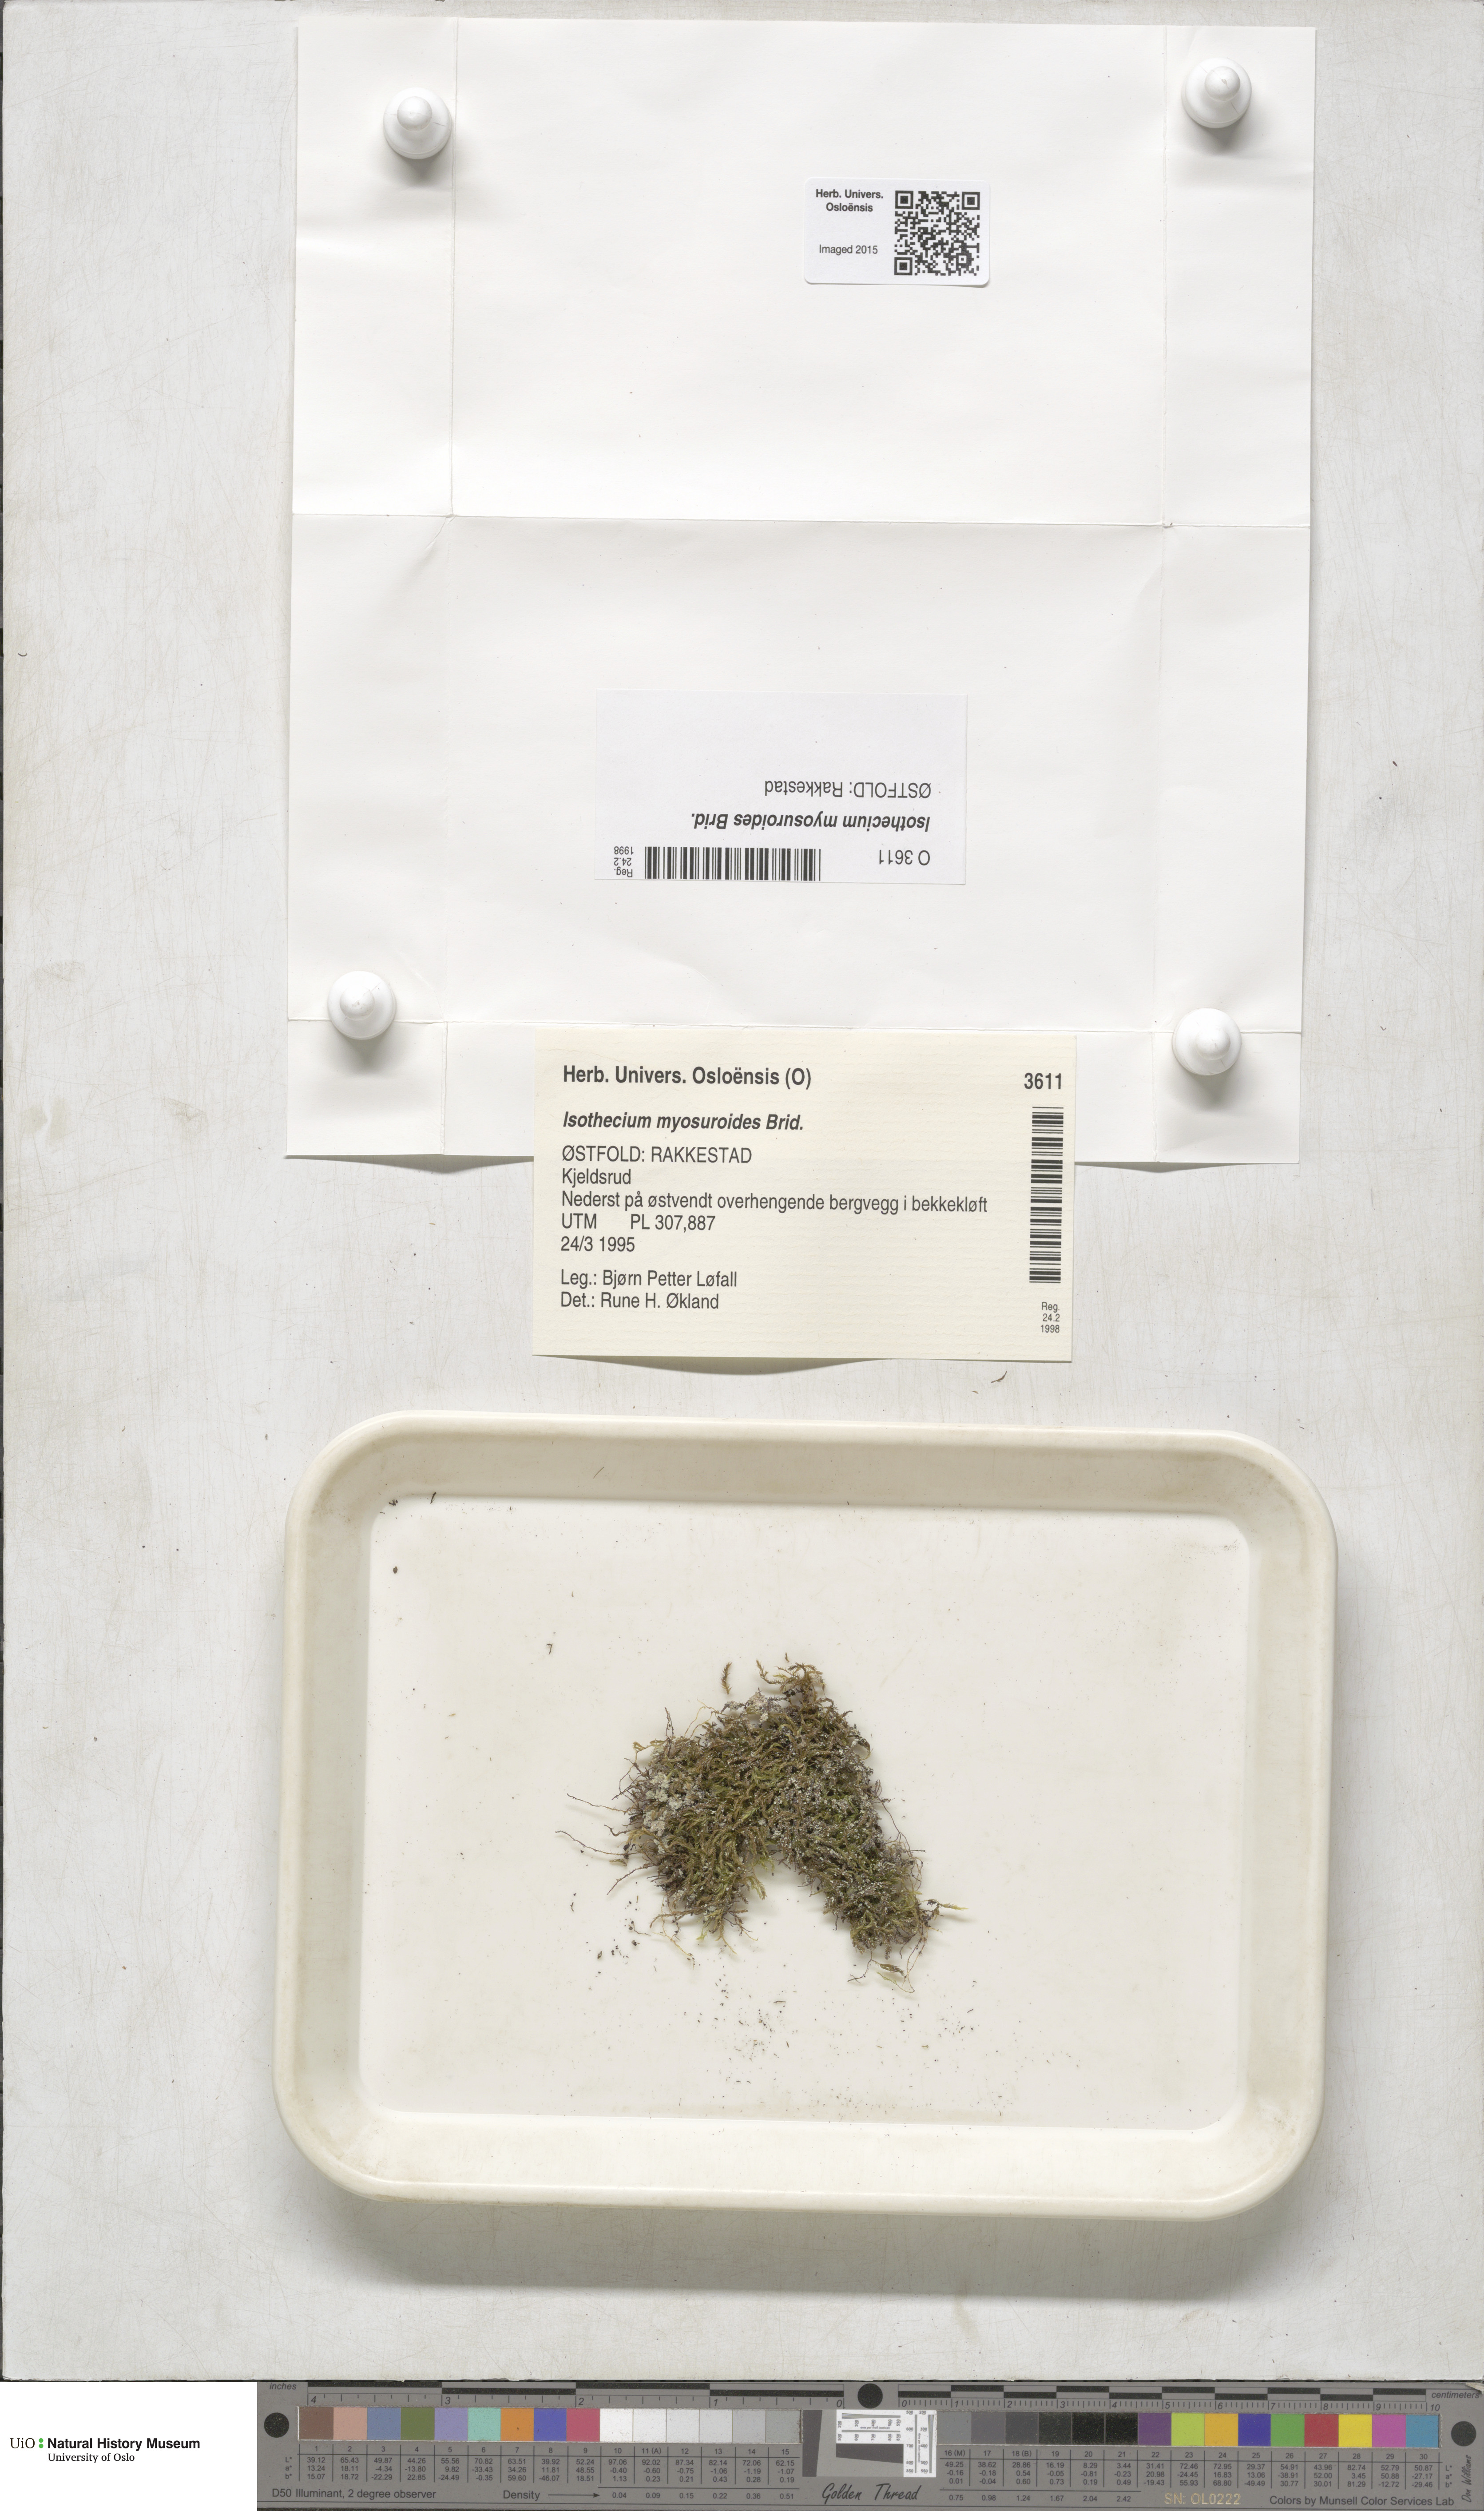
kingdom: Plantae
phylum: Bryophyta
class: Bryopsida
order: Hypnales
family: Lembophyllaceae
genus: Pseudisothecium
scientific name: Pseudisothecium myosuroides
